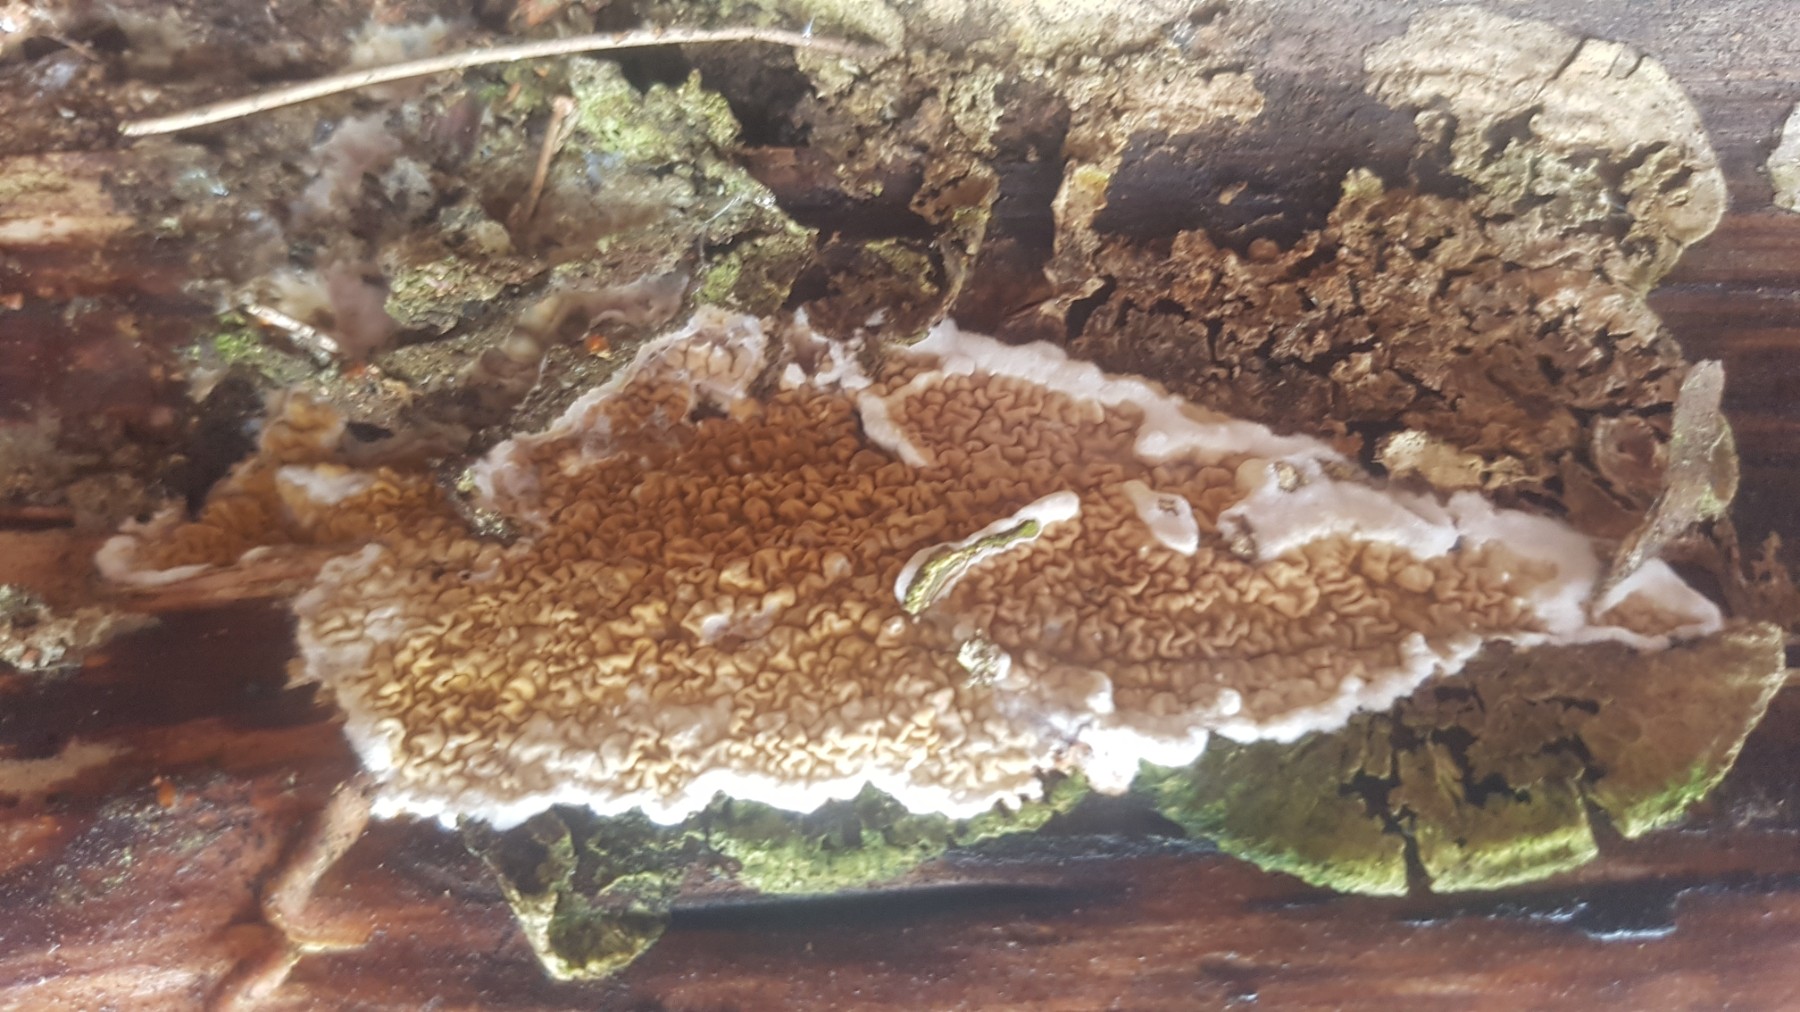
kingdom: Fungi
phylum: Basidiomycota
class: Agaricomycetes
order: Boletales
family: Serpulaceae
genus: Serpula
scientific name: Serpula himantioides
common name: tyndkødet hussvamp
